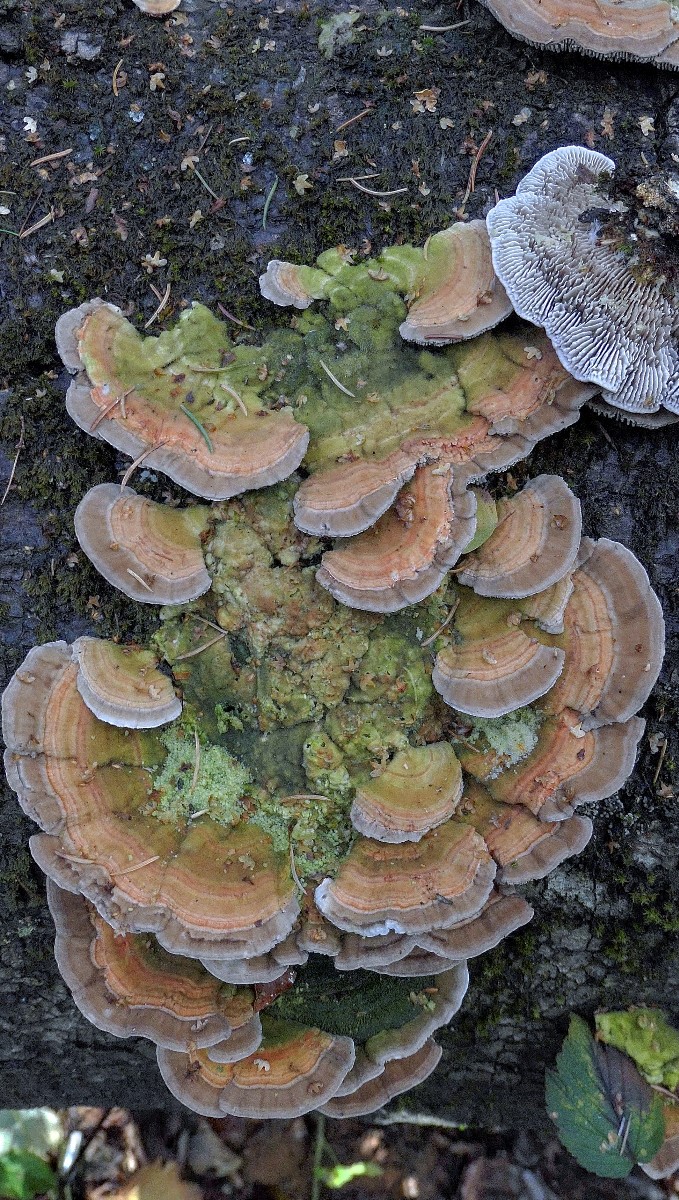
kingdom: Fungi
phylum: Basidiomycota
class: Agaricomycetes
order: Polyporales
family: Polyporaceae
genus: Lenzites
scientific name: Lenzites betulinus
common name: birke-læderporesvamp
